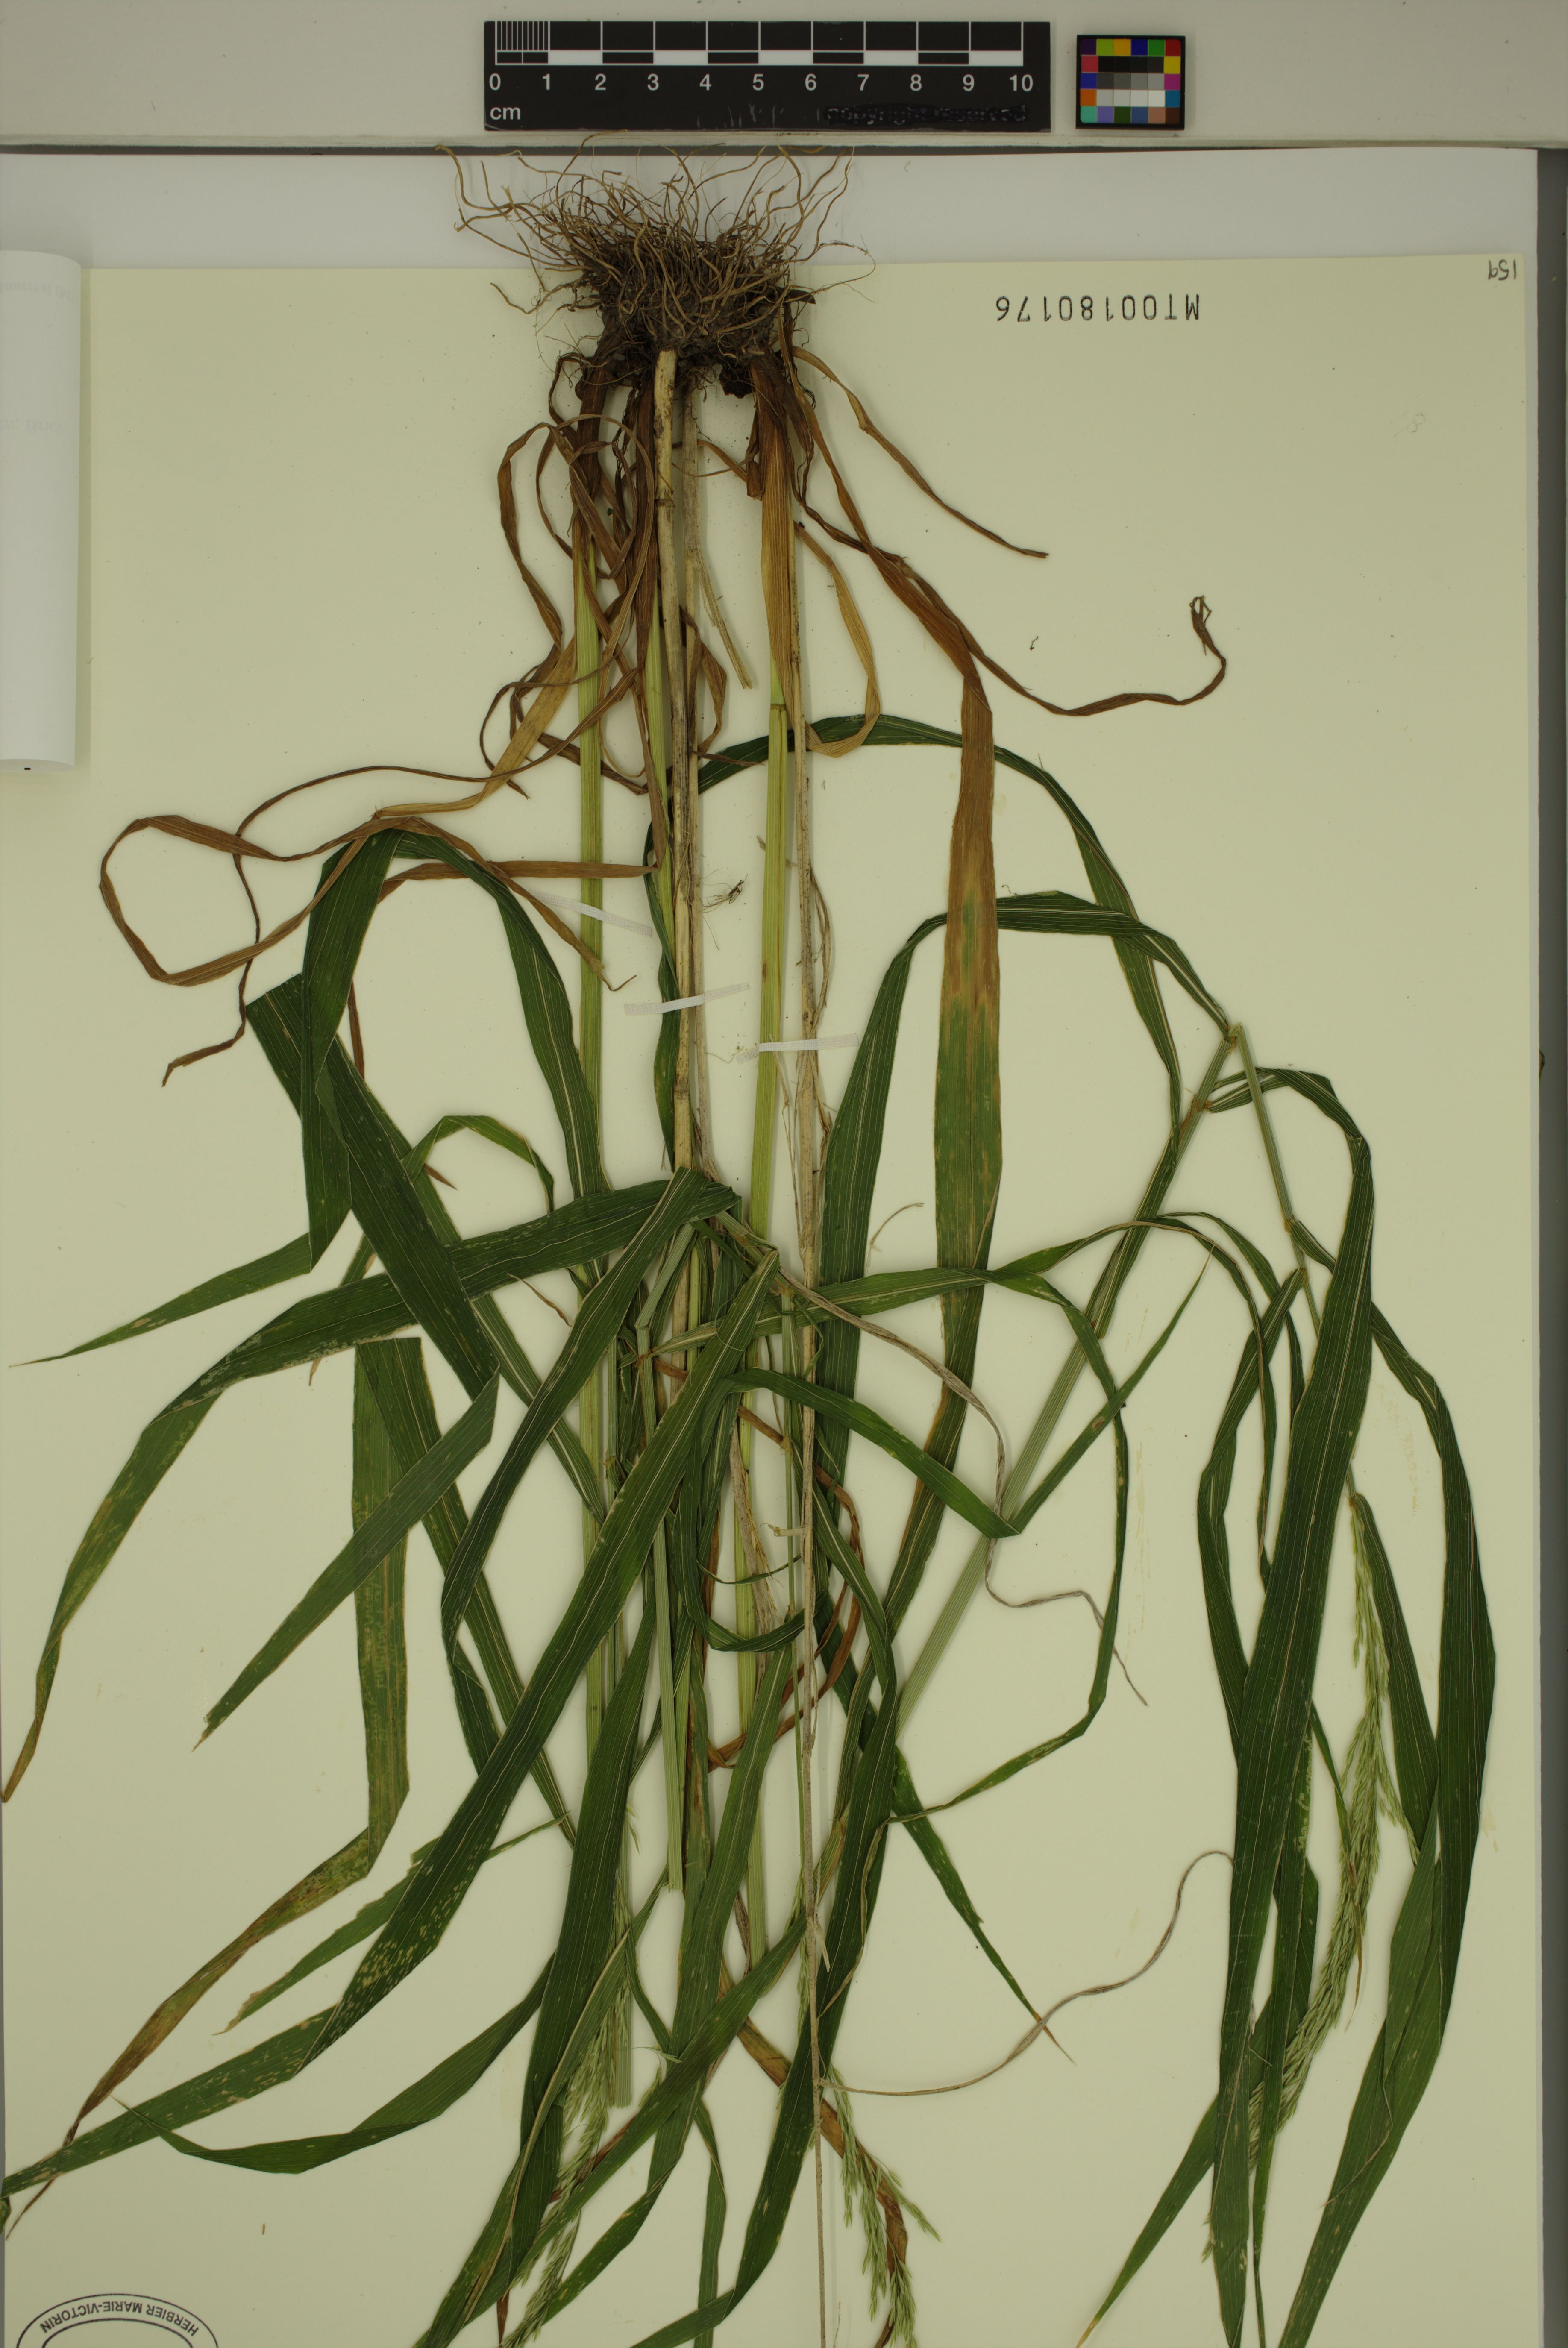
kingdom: Plantae
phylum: Tracheophyta
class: Liliopsida
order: Poales
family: Poaceae
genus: Cinna
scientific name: Cinna arundinacea
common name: Stout woodreed
